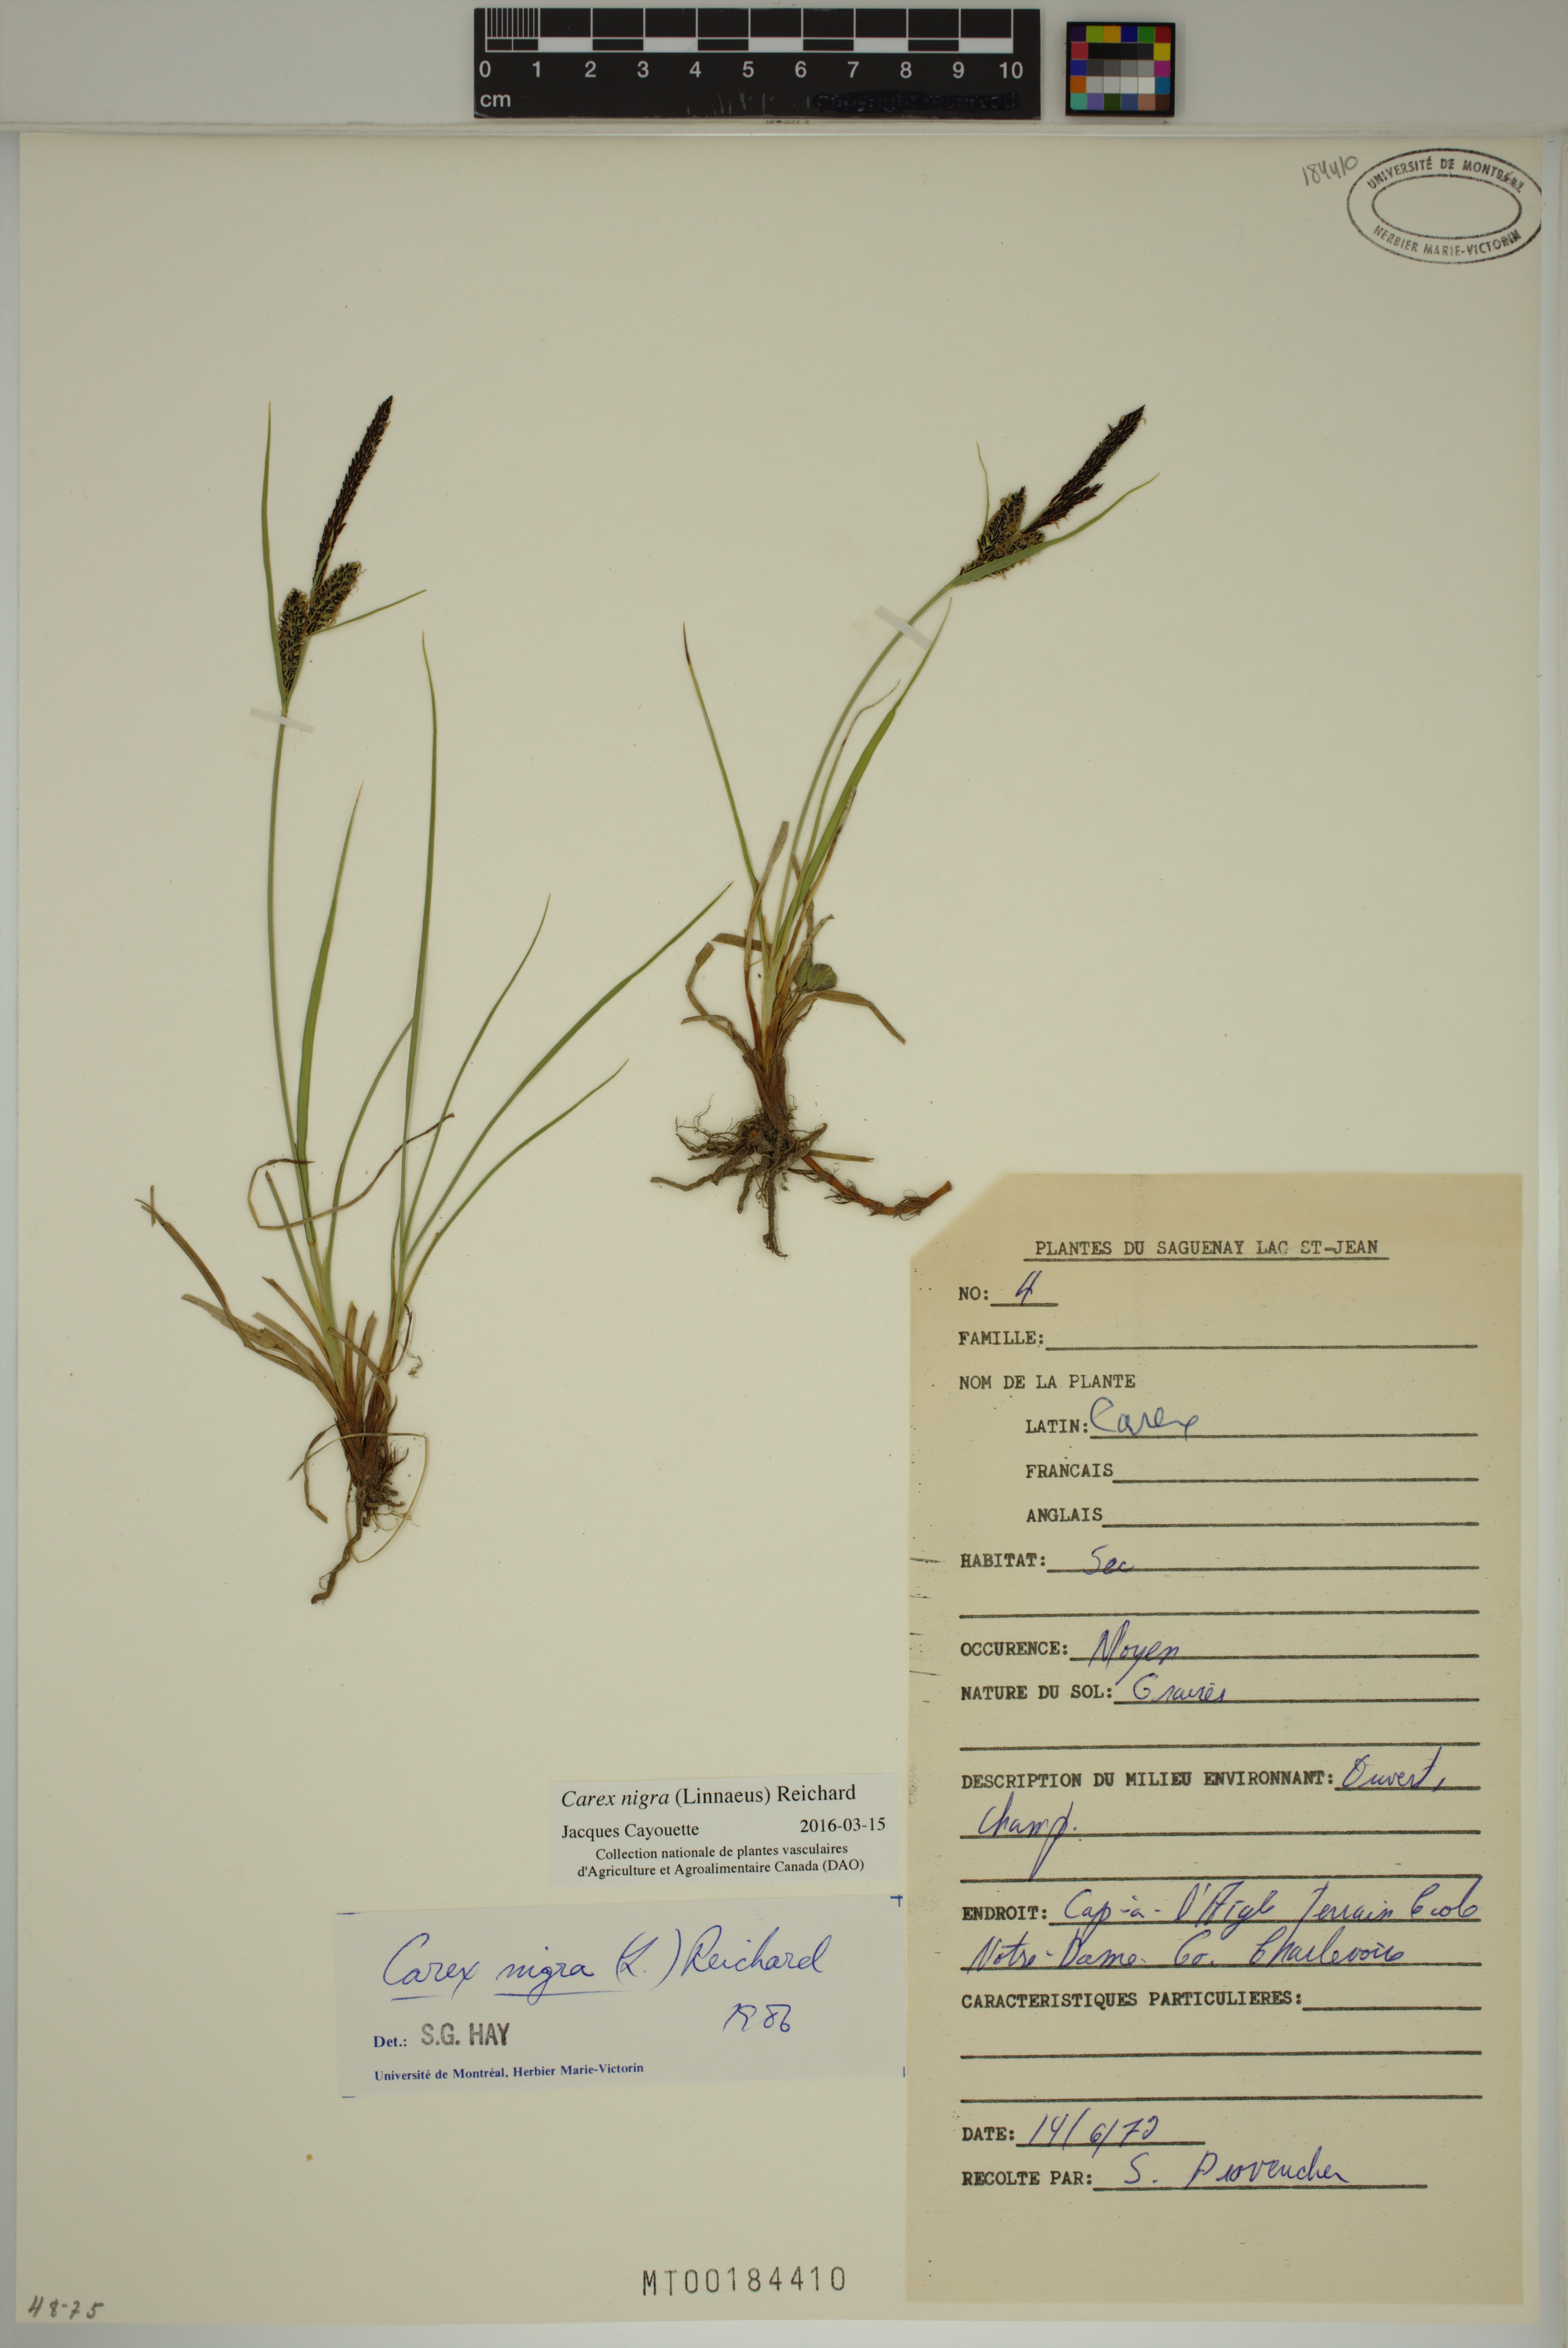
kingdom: Plantae
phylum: Tracheophyta
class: Liliopsida
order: Poales
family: Cyperaceae
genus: Carex
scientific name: Carex nigra
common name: Common sedge
